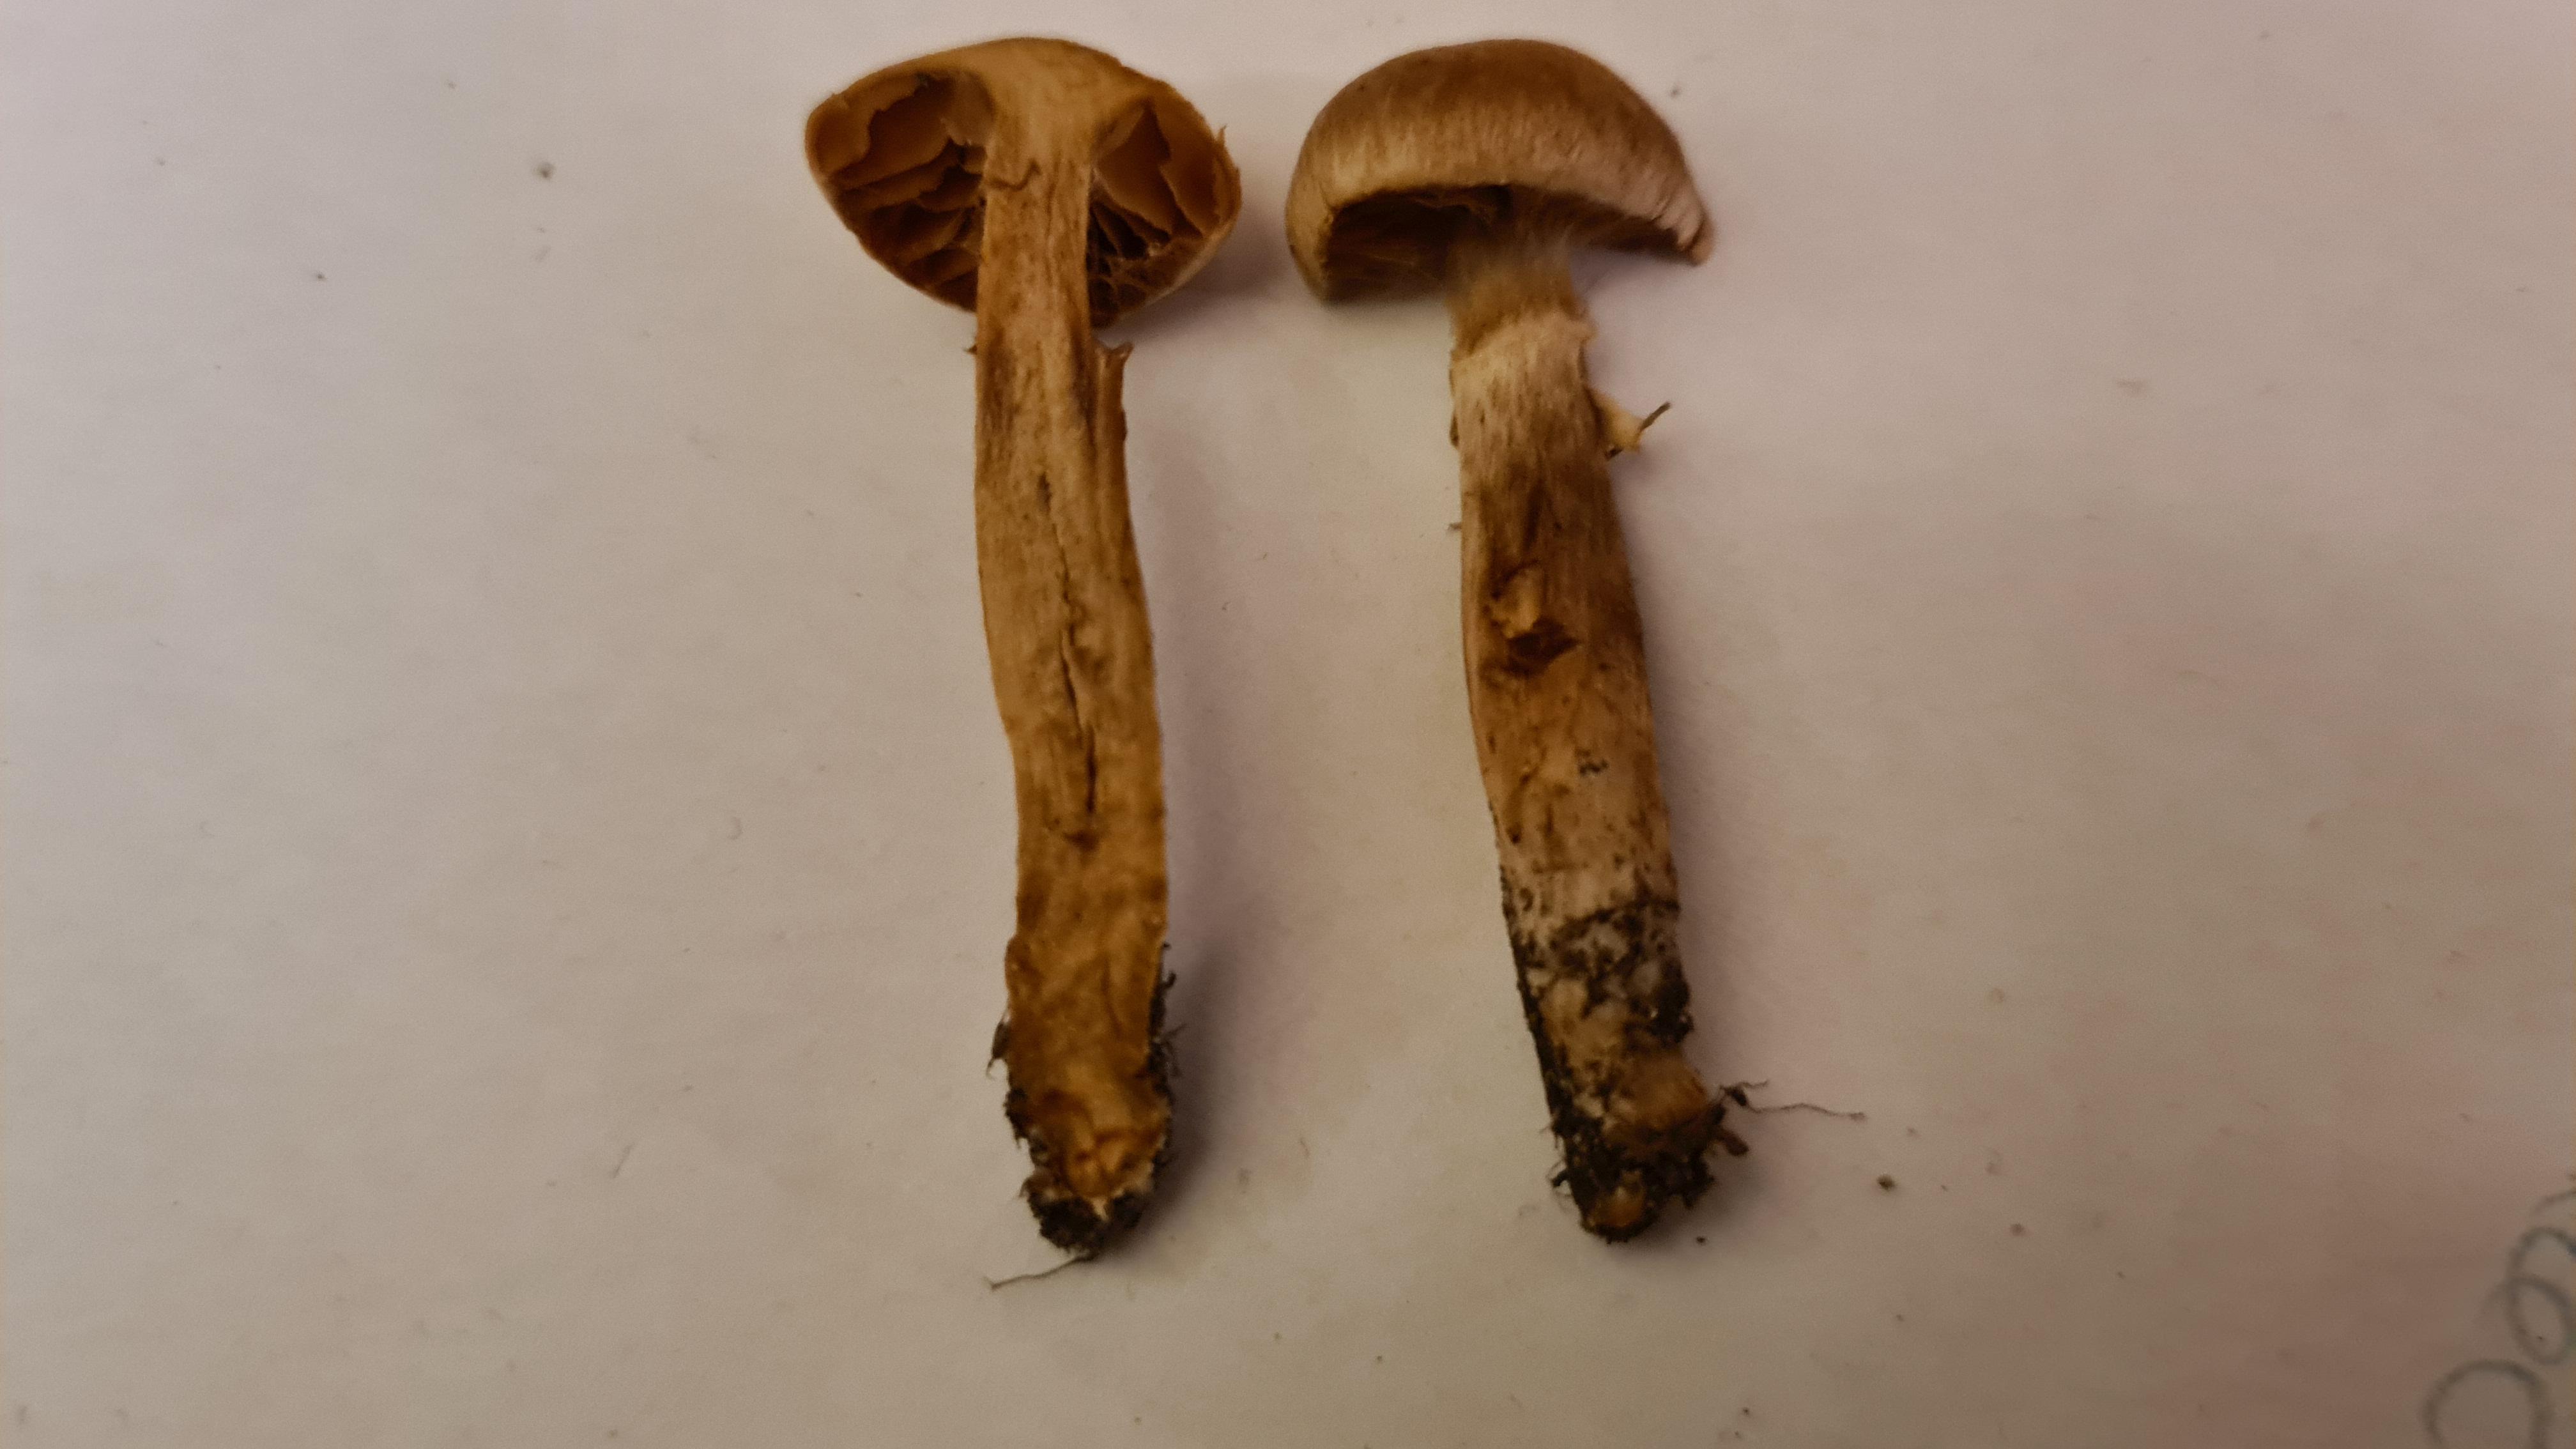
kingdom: Fungi
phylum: Basidiomycota
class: Agaricomycetes
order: Agaricales
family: Cortinariaceae
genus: Cortinarius
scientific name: Cortinarius hinnuleus
